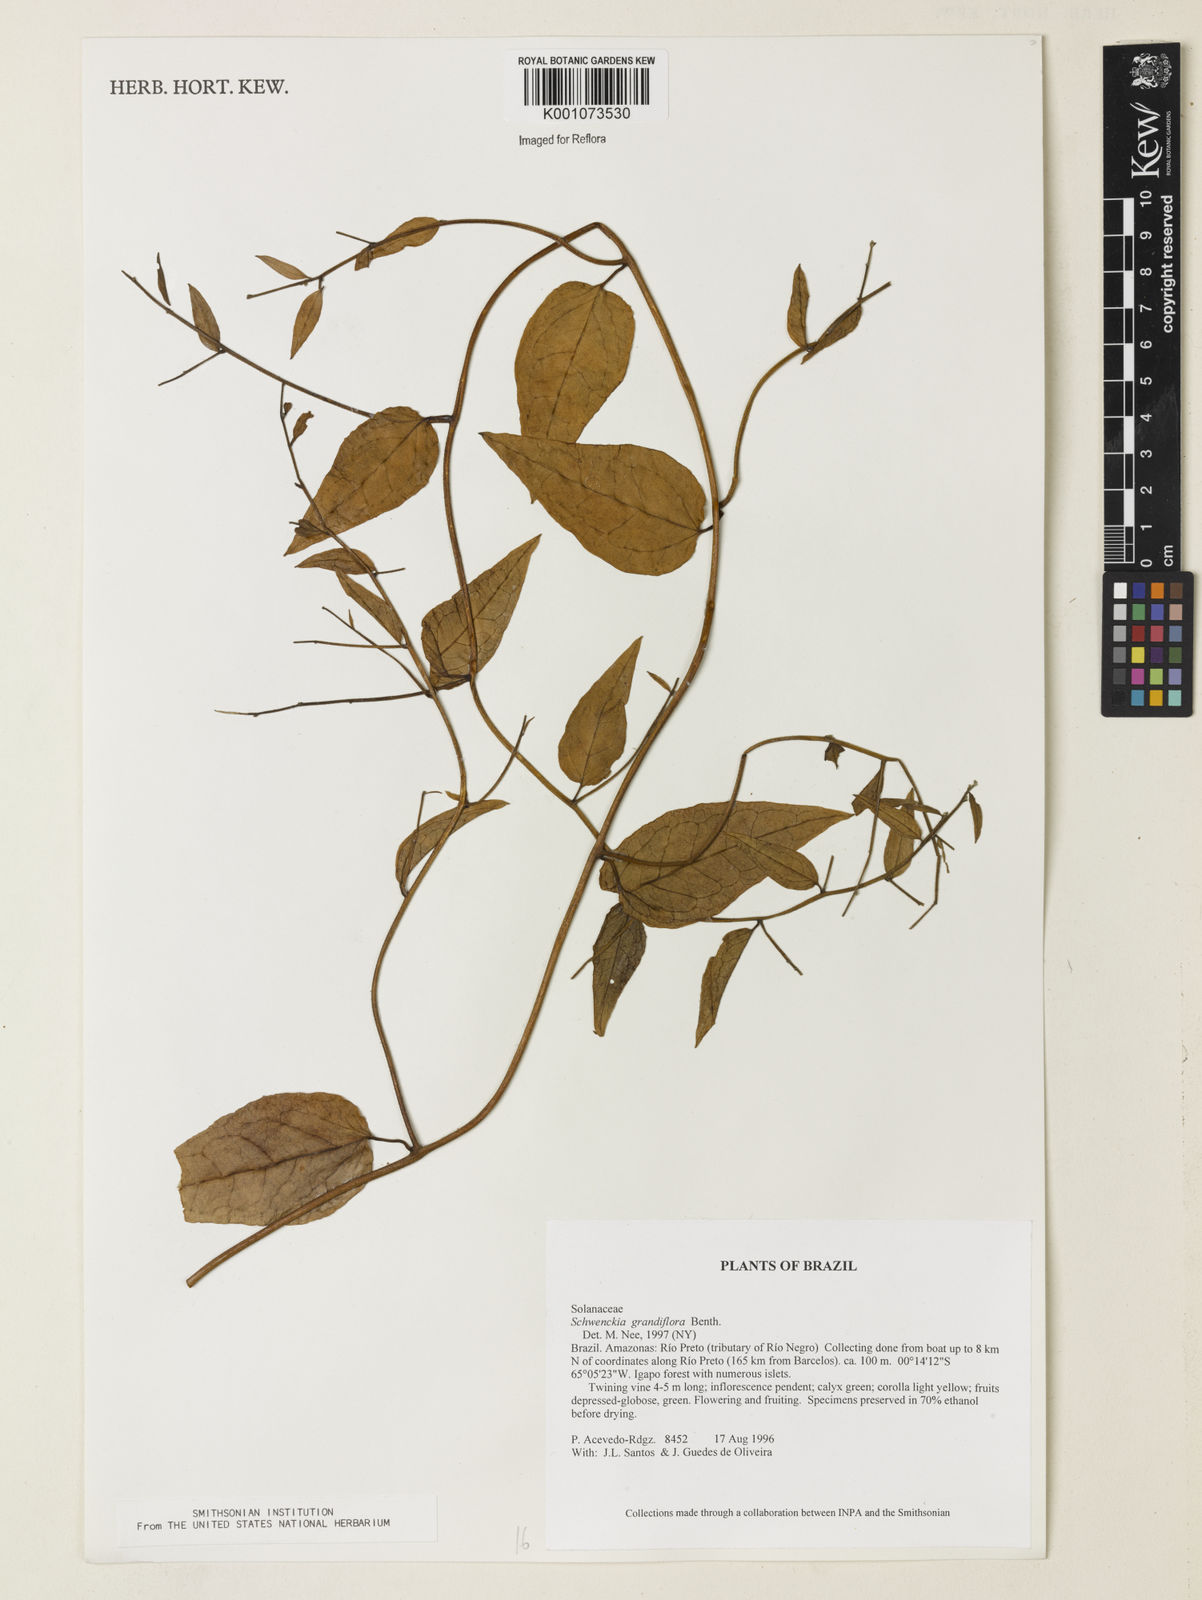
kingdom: Plantae
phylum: Tracheophyta
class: Magnoliopsida
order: Solanales
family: Solanaceae
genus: Schwenckia
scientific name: Schwenckia grandiflora
